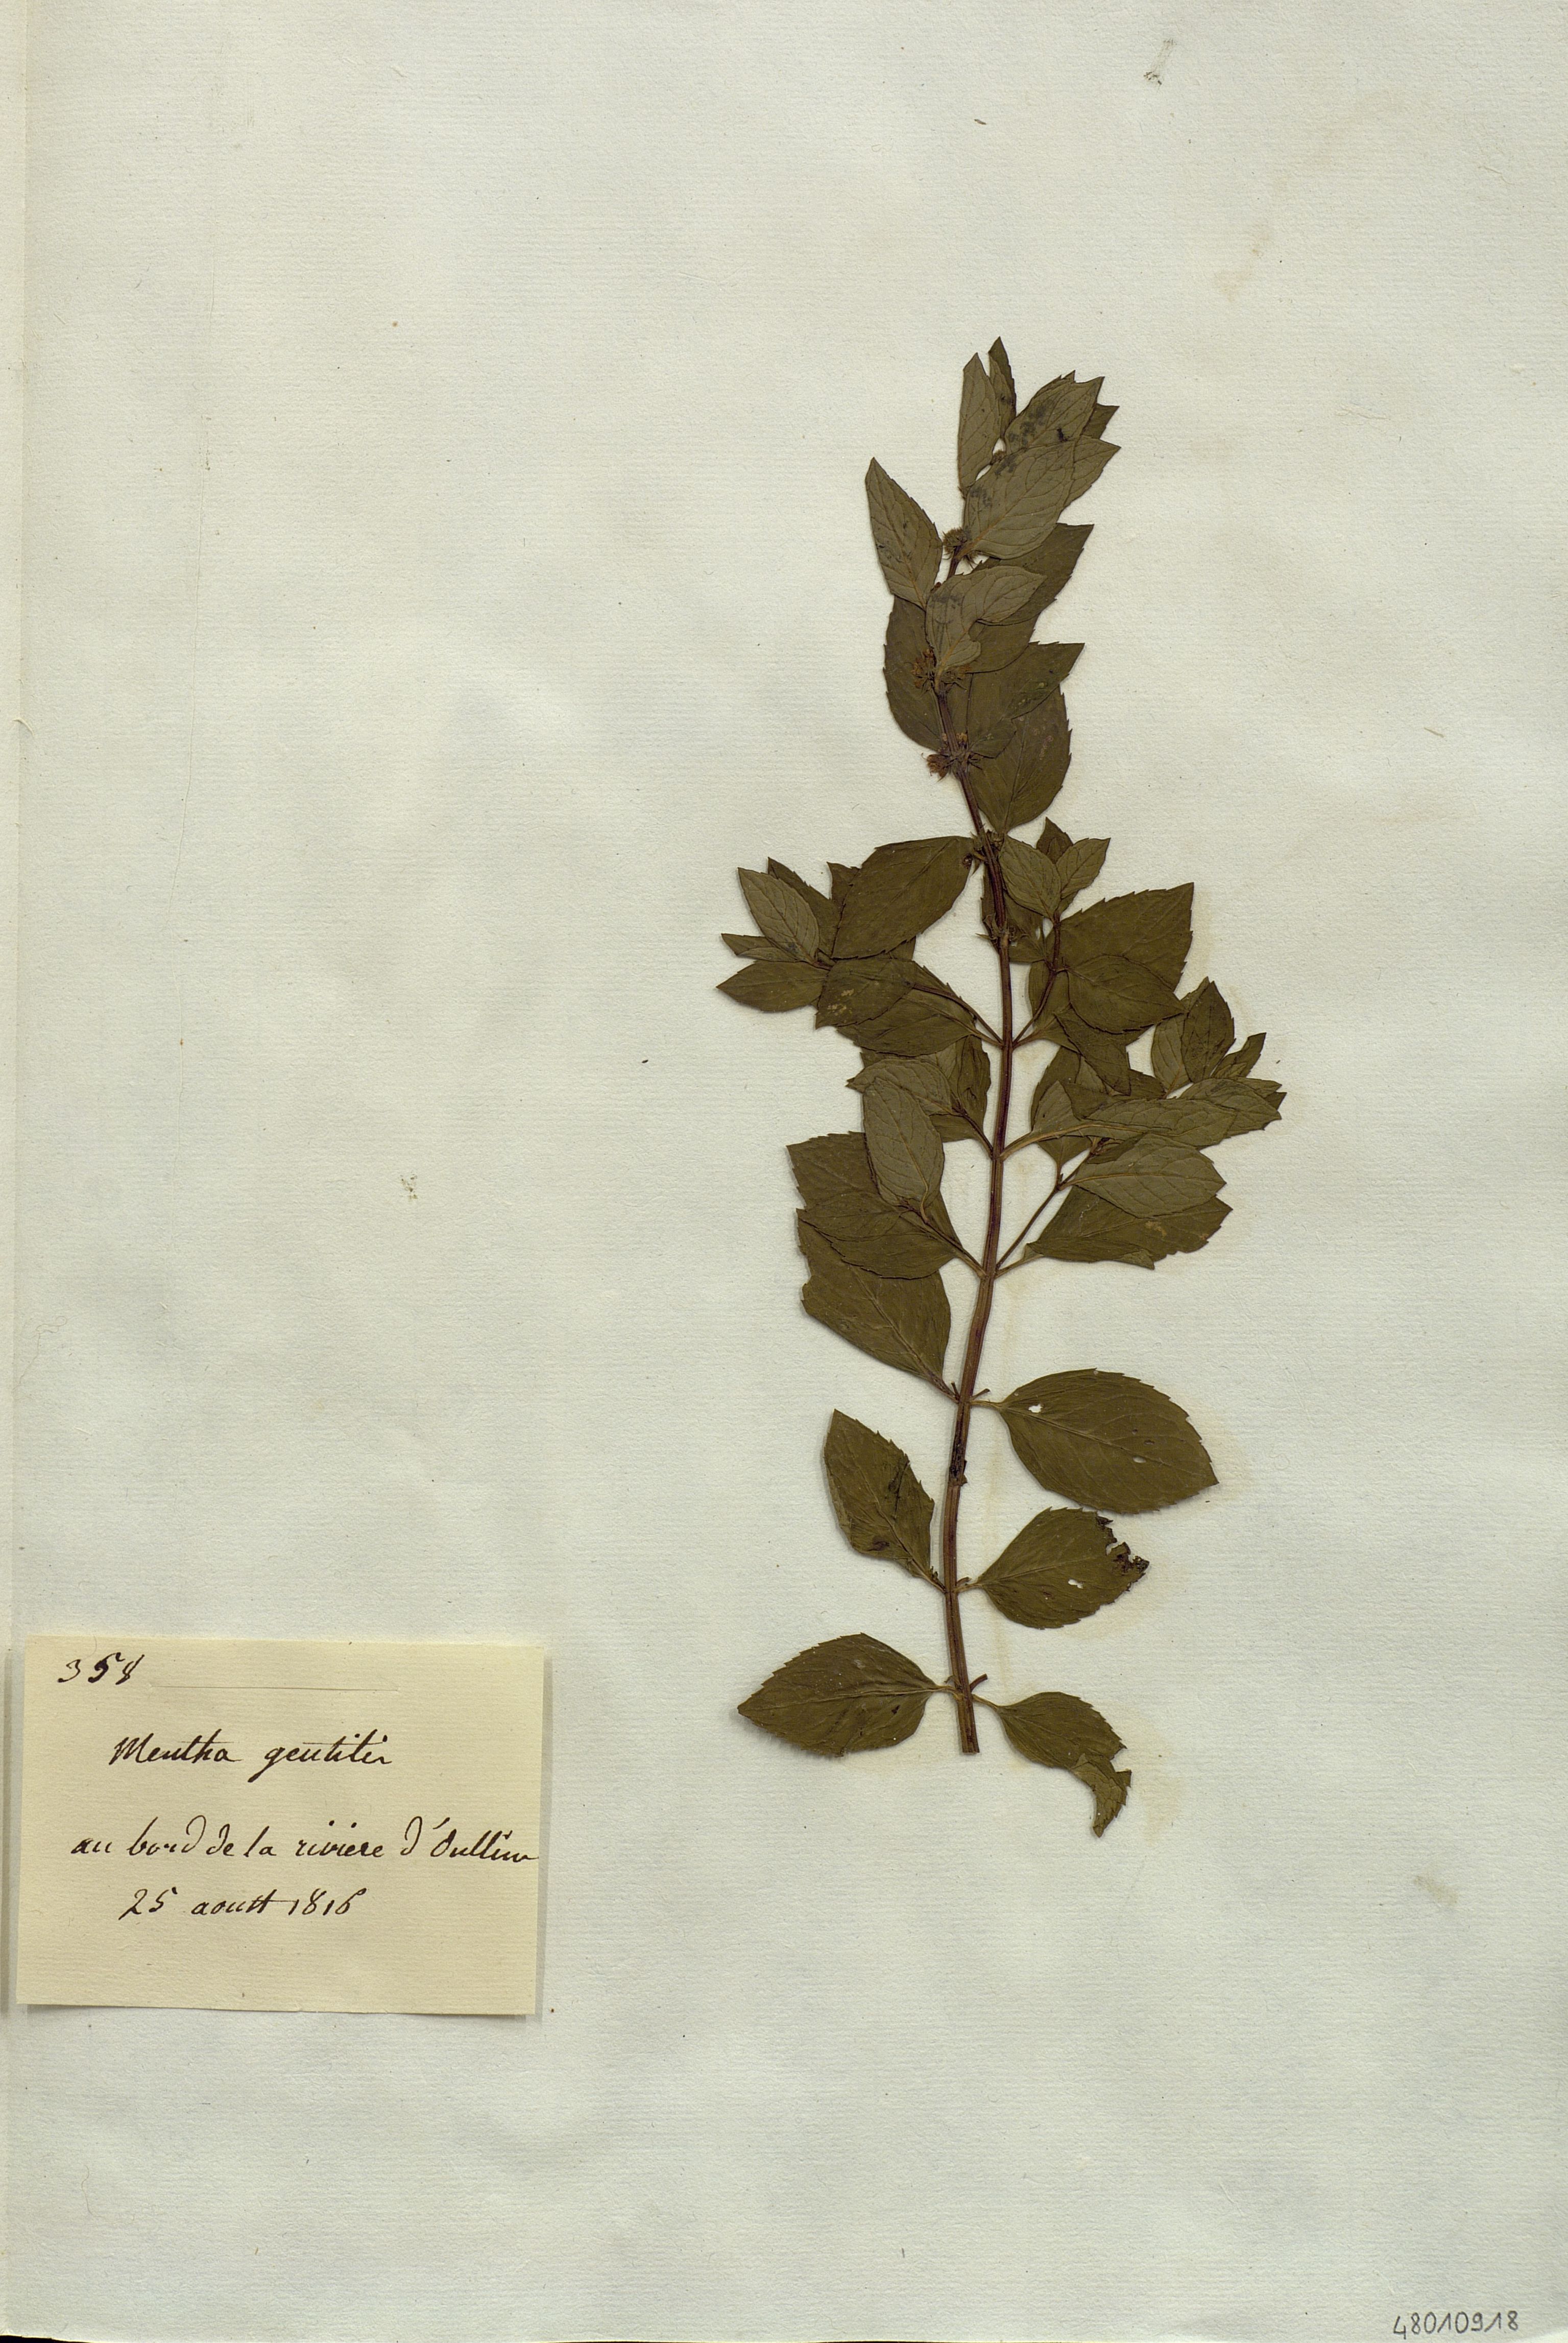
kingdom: Plantae
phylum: Tracheophyta
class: Magnoliopsida
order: Lamiales
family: Lamiaceae
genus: Mentha
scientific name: Mentha gentilis
